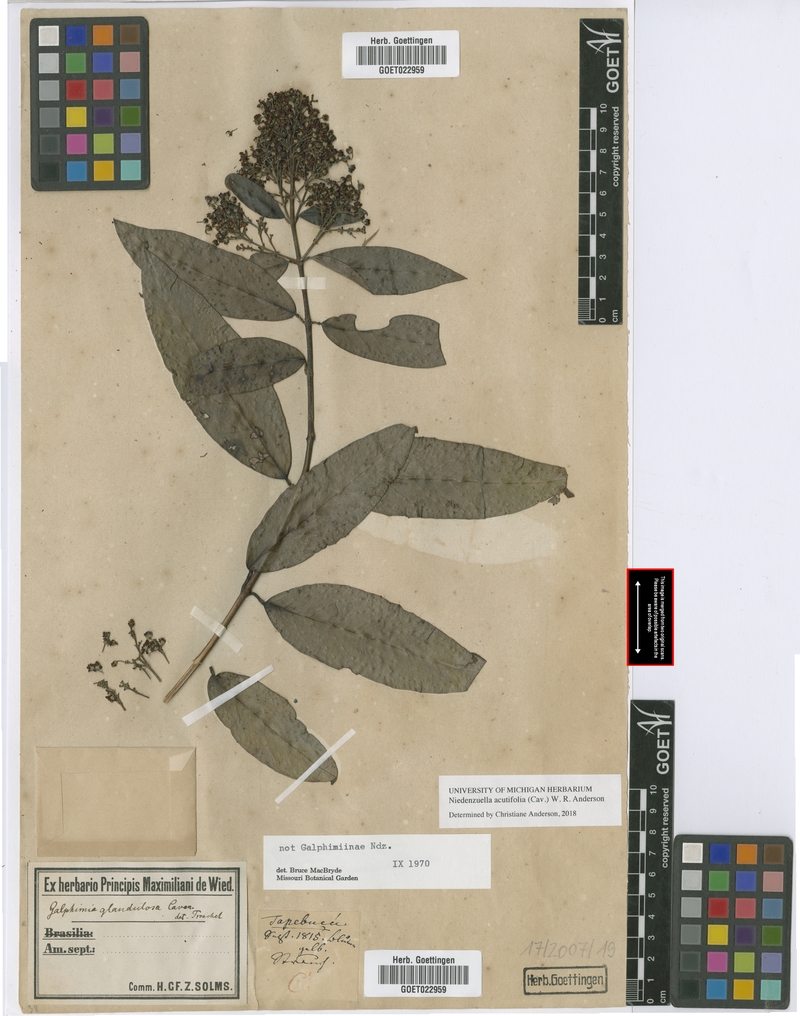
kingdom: Plantae
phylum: Tracheophyta
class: Magnoliopsida
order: Malpighiales
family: Malpighiaceae
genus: Niedenzuella
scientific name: Niedenzuella acutifolia
